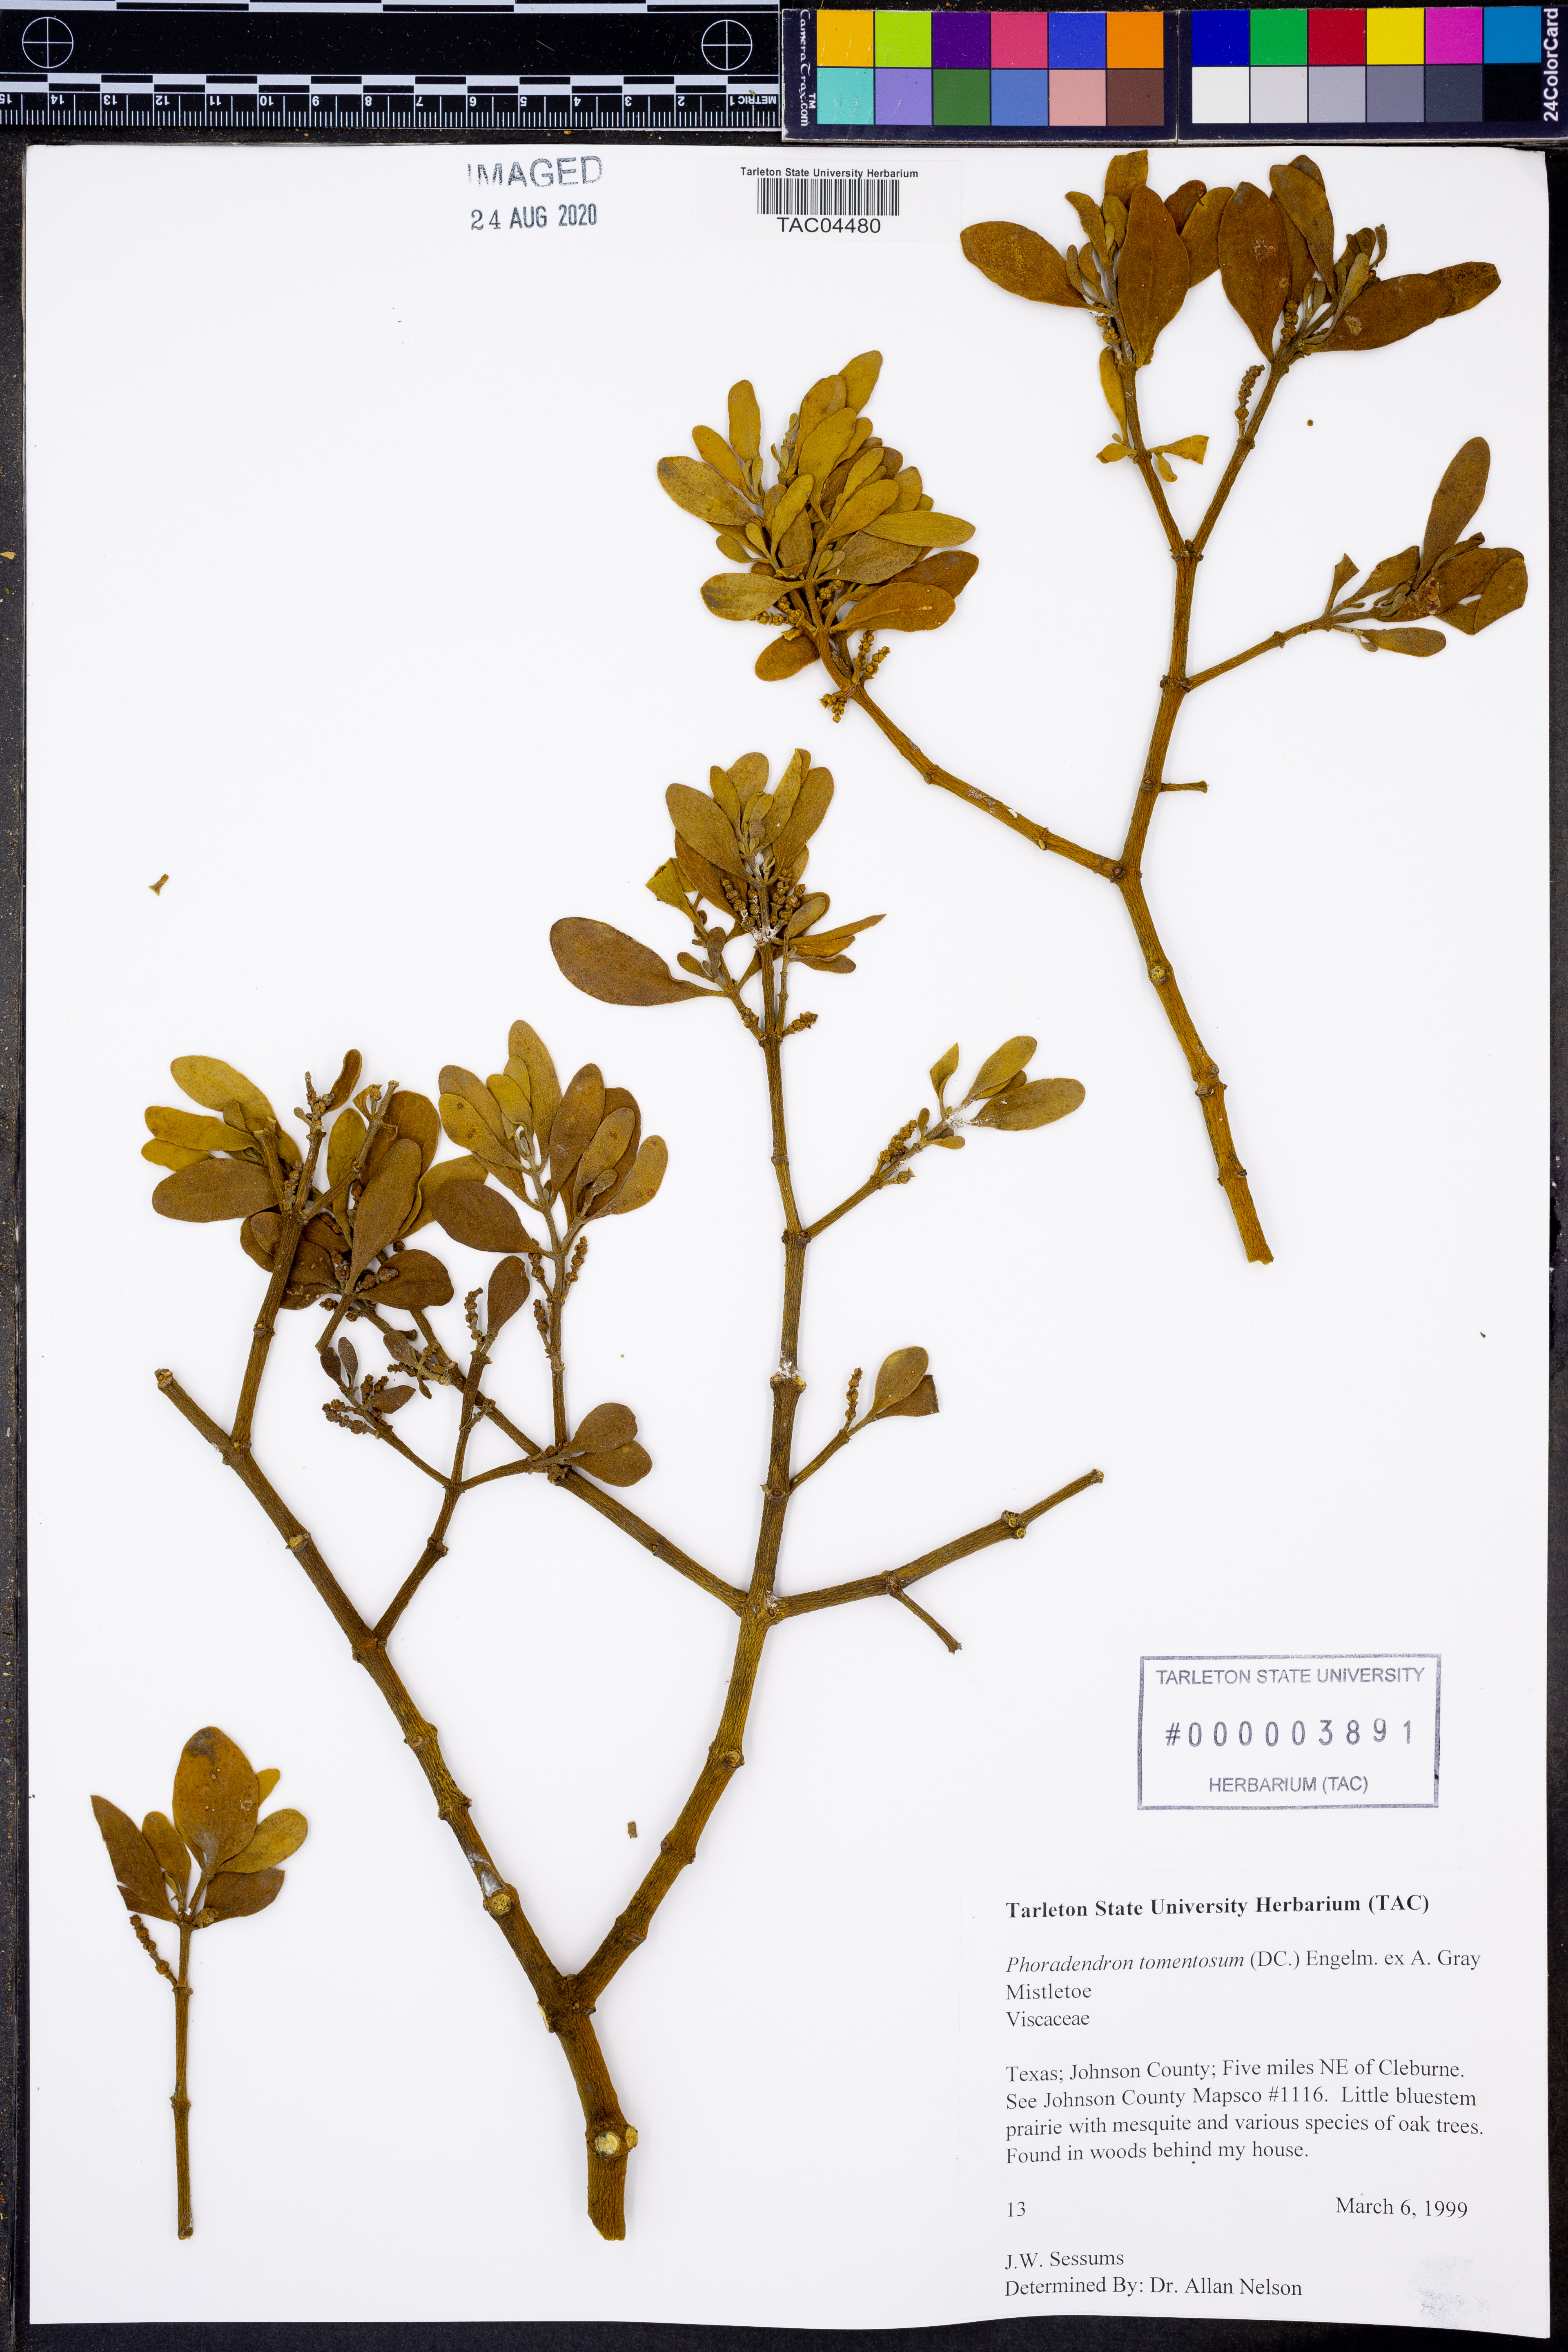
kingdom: Plantae
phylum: Tracheophyta
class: Magnoliopsida
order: Santalales
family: Viscaceae
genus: Phoradendron
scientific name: Phoradendron leucarpum
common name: Pacific mistletoe
